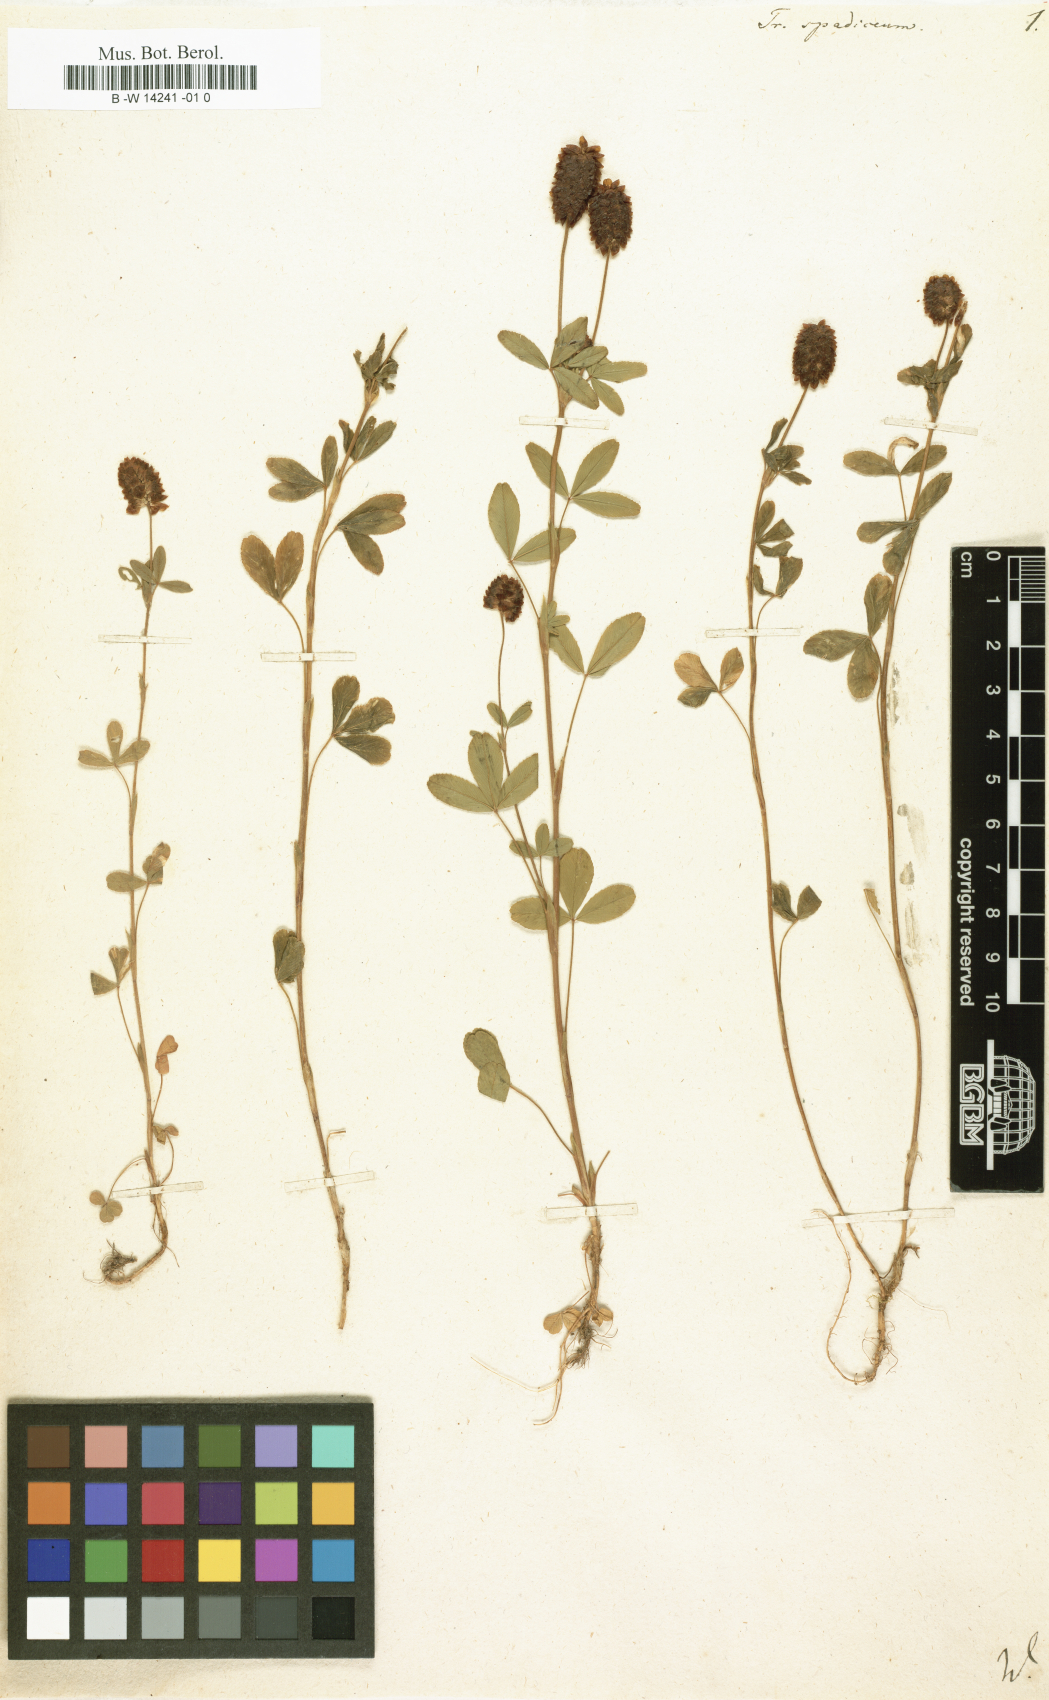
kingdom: Plantae
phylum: Tracheophyta
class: Magnoliopsida
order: Fabales
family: Fabaceae
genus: Trifolium
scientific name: Trifolium spadiceum
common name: Brown moor clover
